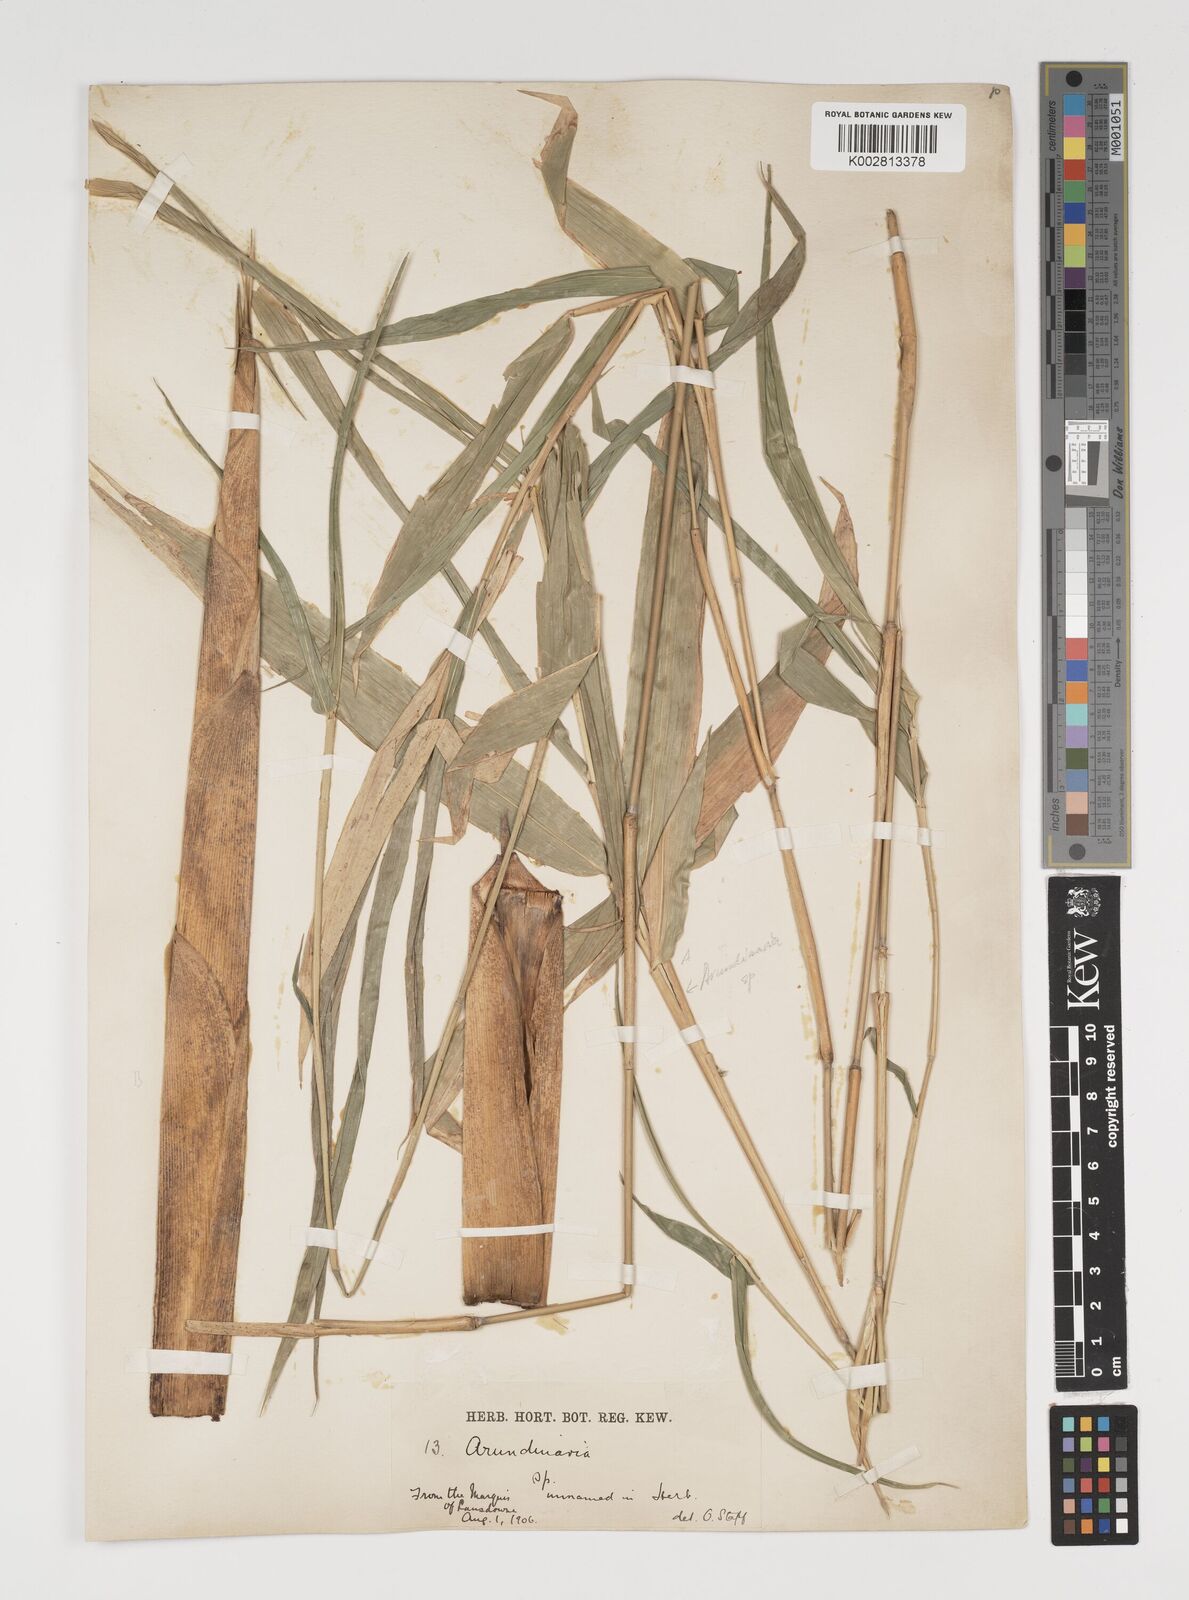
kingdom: Plantae
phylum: Tracheophyta
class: Liliopsida
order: Poales
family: Poaceae
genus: Thamnocalamus
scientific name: Thamnocalamus spathiflorus
